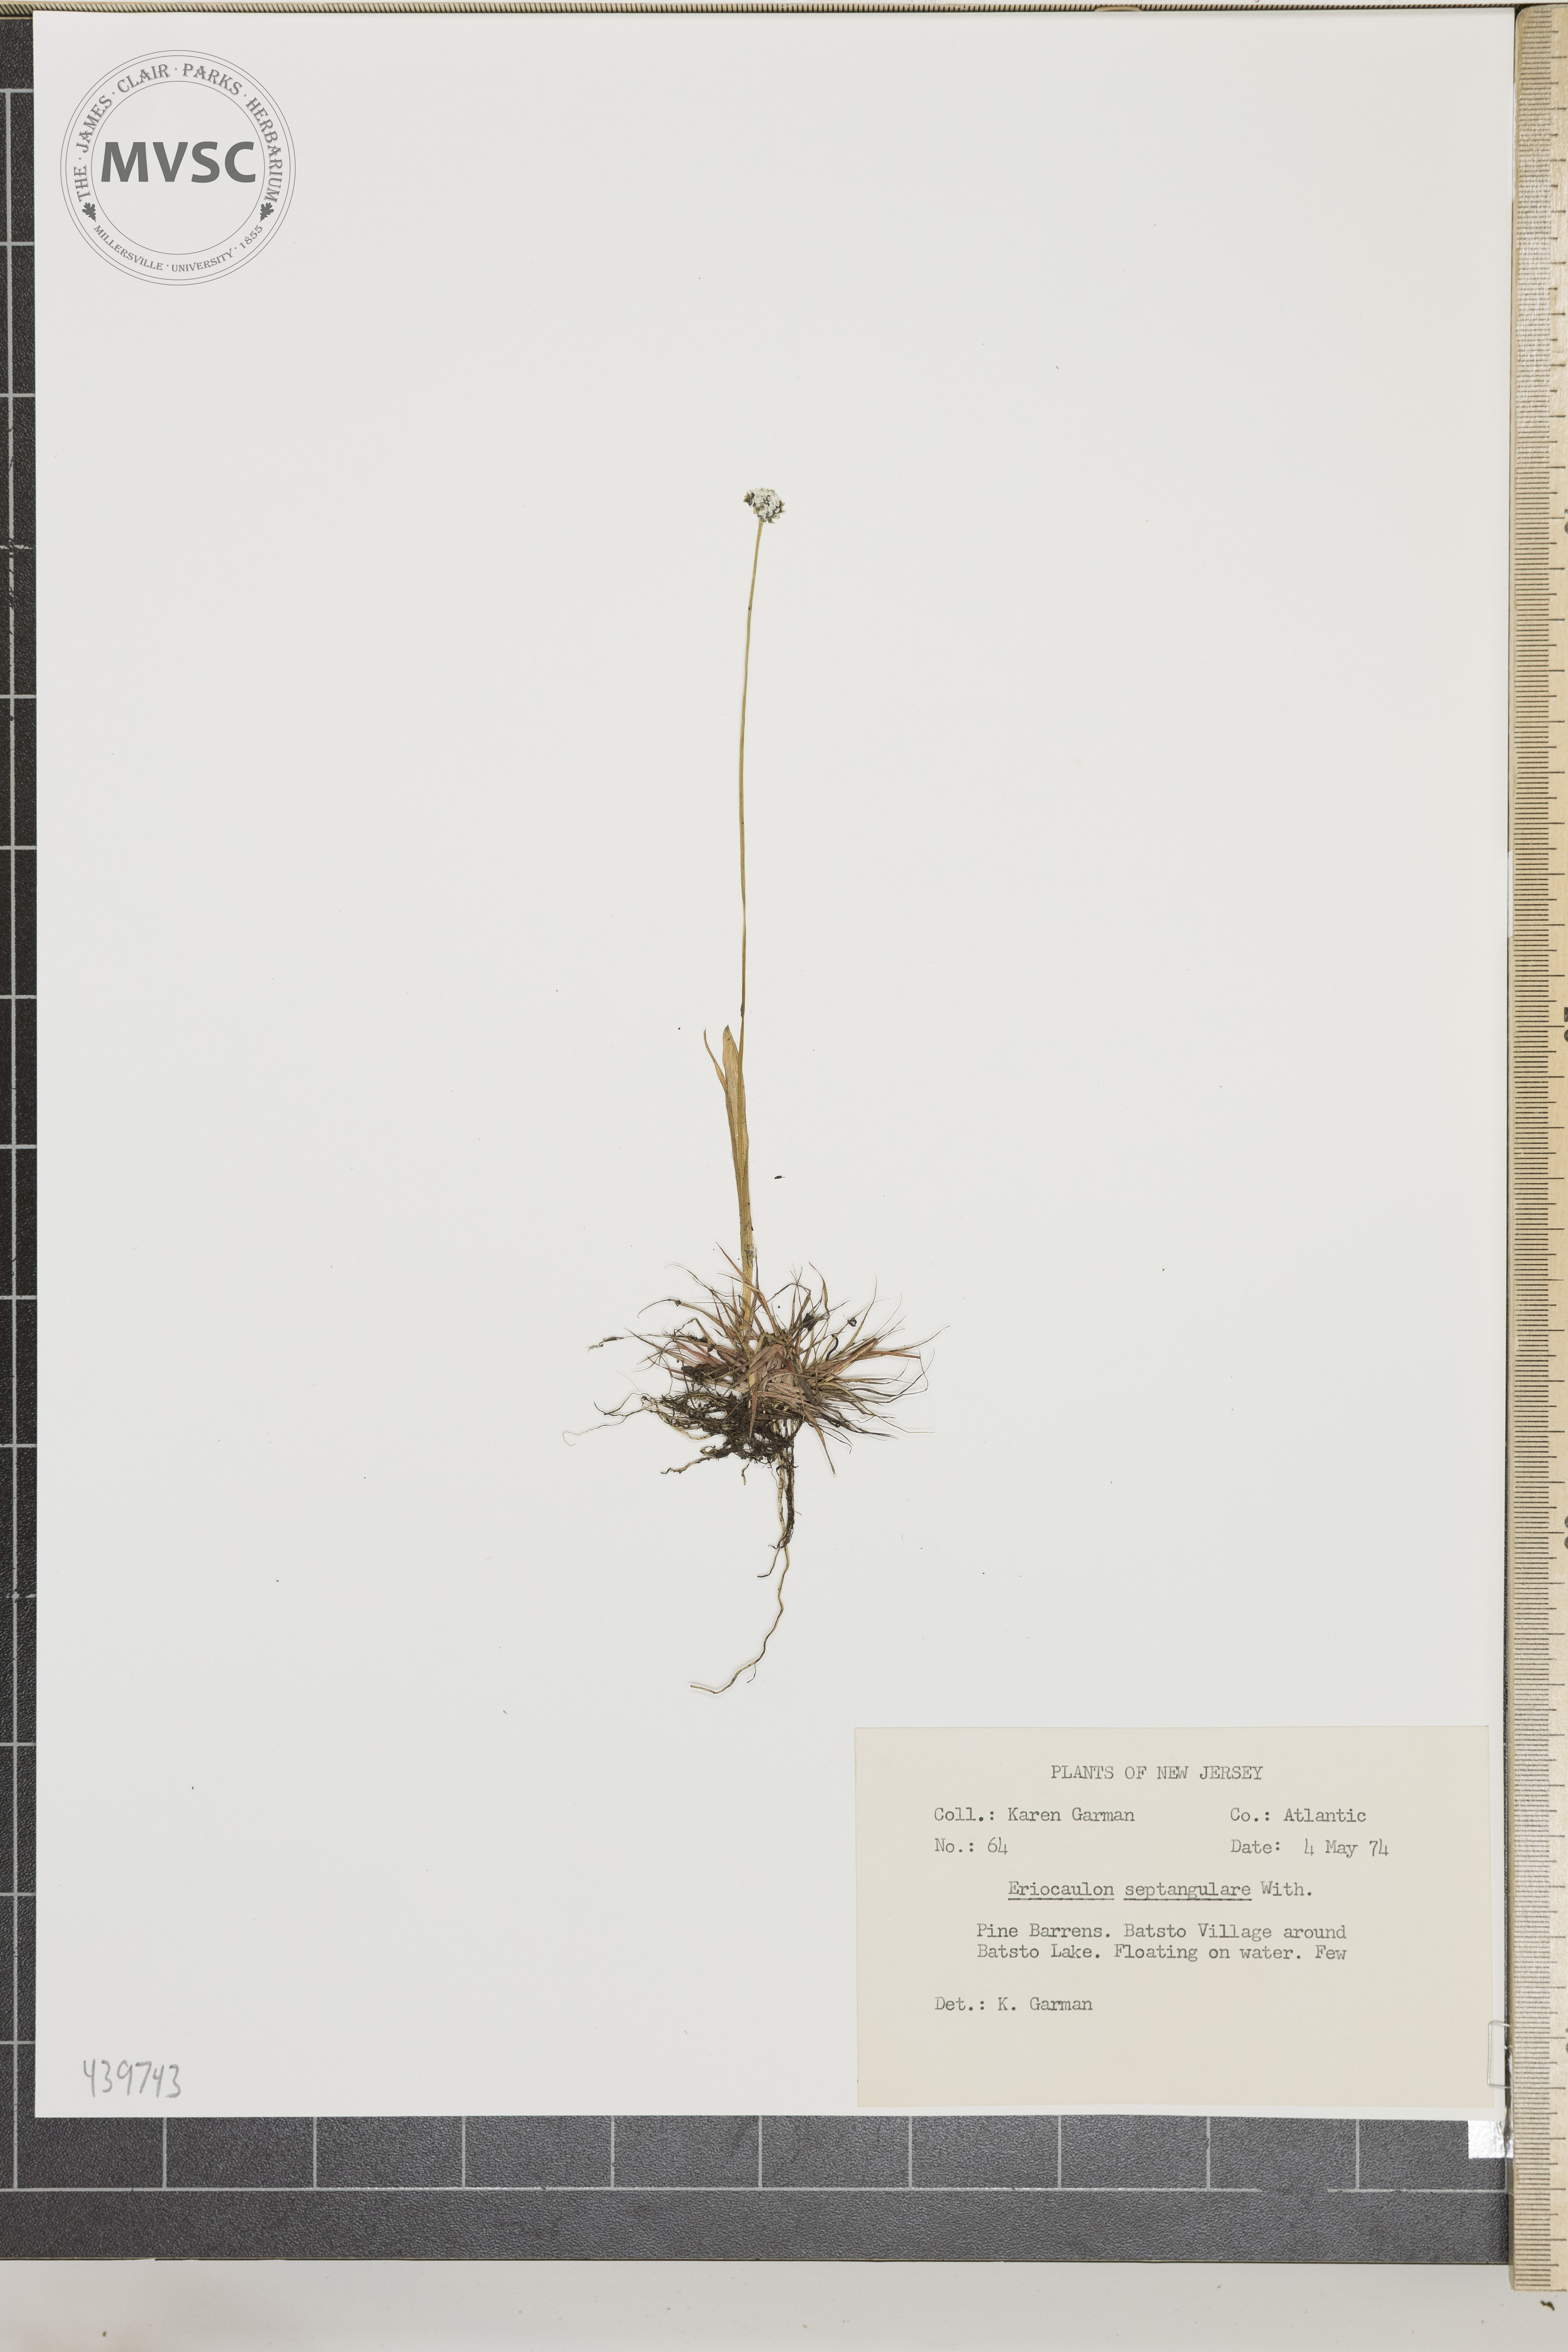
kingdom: Plantae
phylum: Tracheophyta
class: Liliopsida
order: Poales
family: Eriocaulaceae
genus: Eriocaulon
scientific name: Eriocaulon aquaticum
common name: Pipewort
